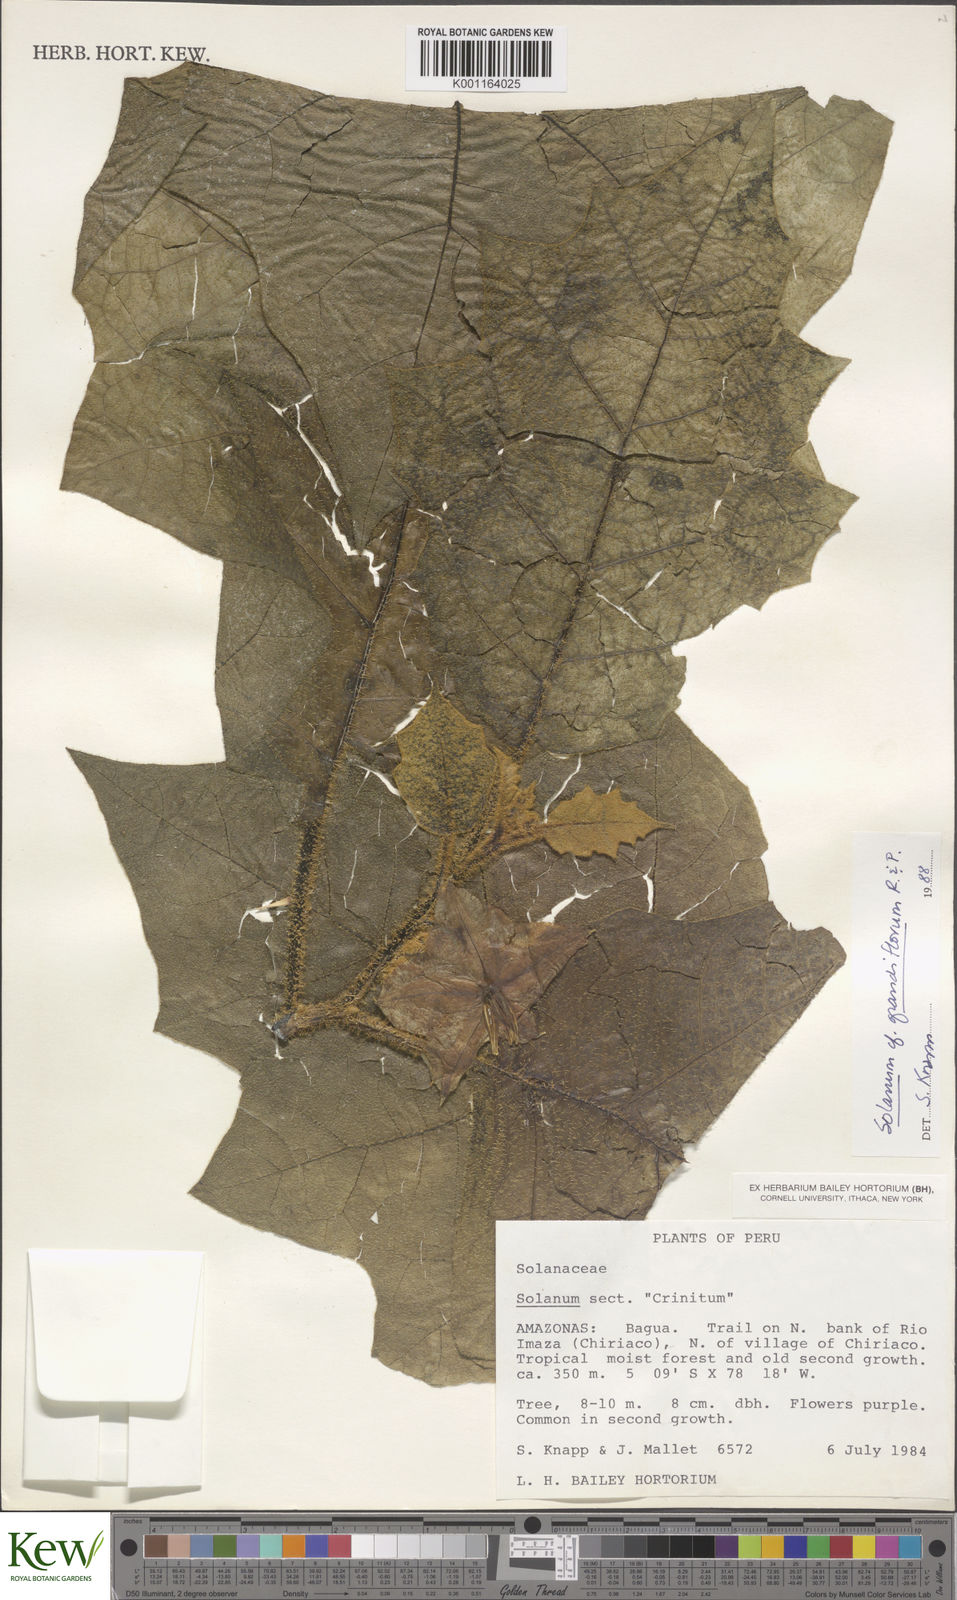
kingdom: Plantae
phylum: Tracheophyta
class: Magnoliopsida
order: Solanales
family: Solanaceae
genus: Solanum
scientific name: Solanum grandiflorum
